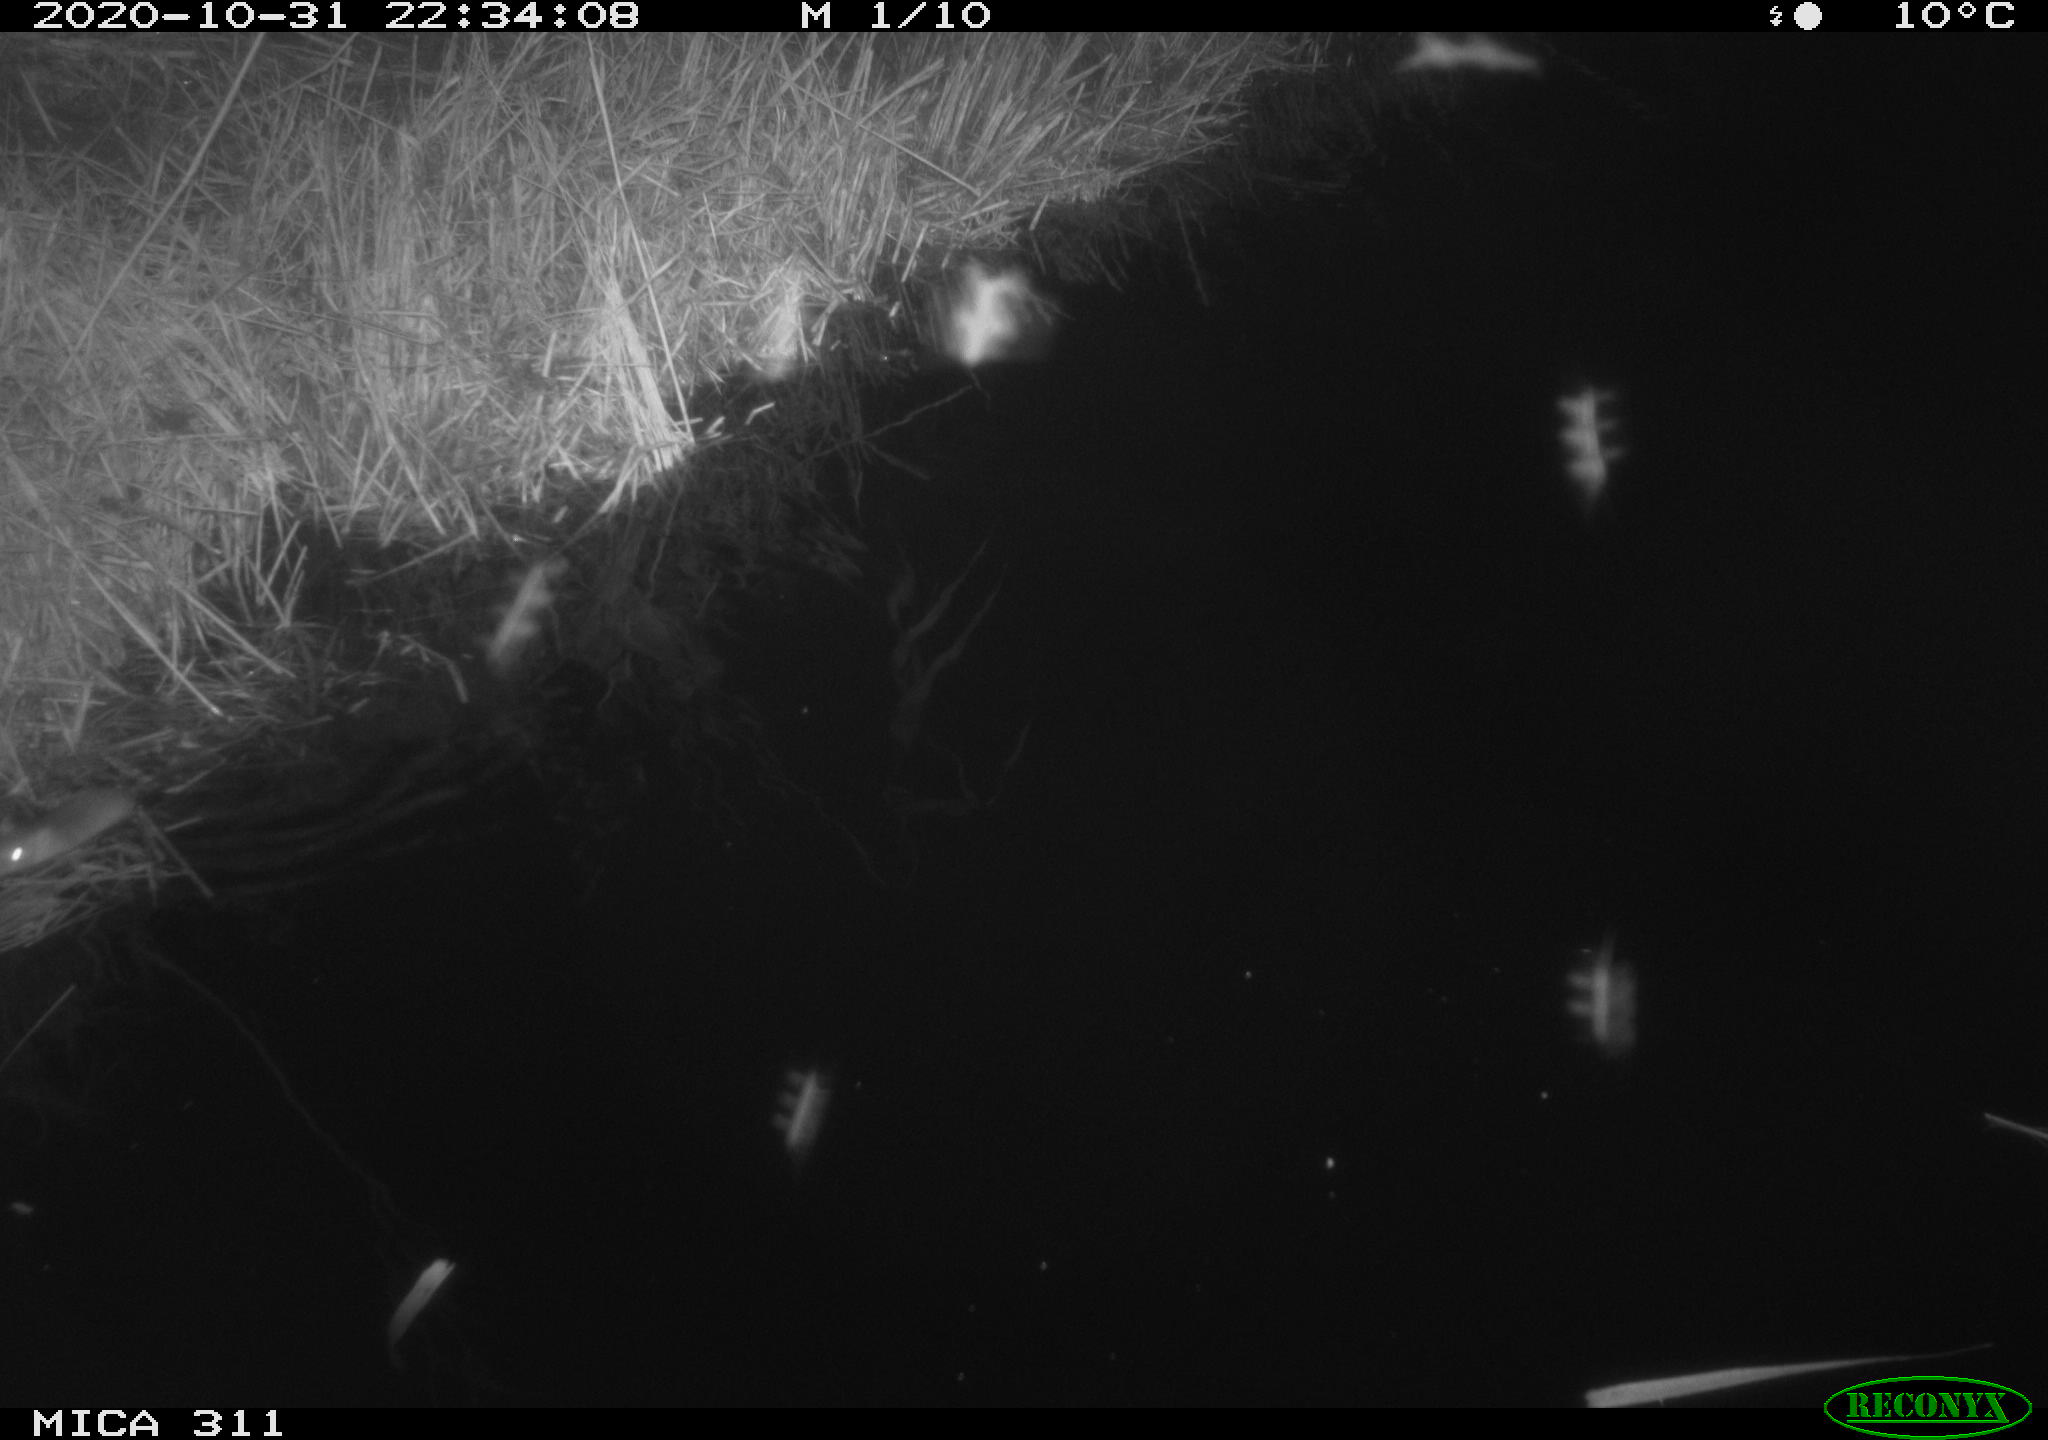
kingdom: Animalia
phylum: Chordata
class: Mammalia
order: Rodentia
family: Muridae
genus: Rattus
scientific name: Rattus norvegicus
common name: Brown rat
